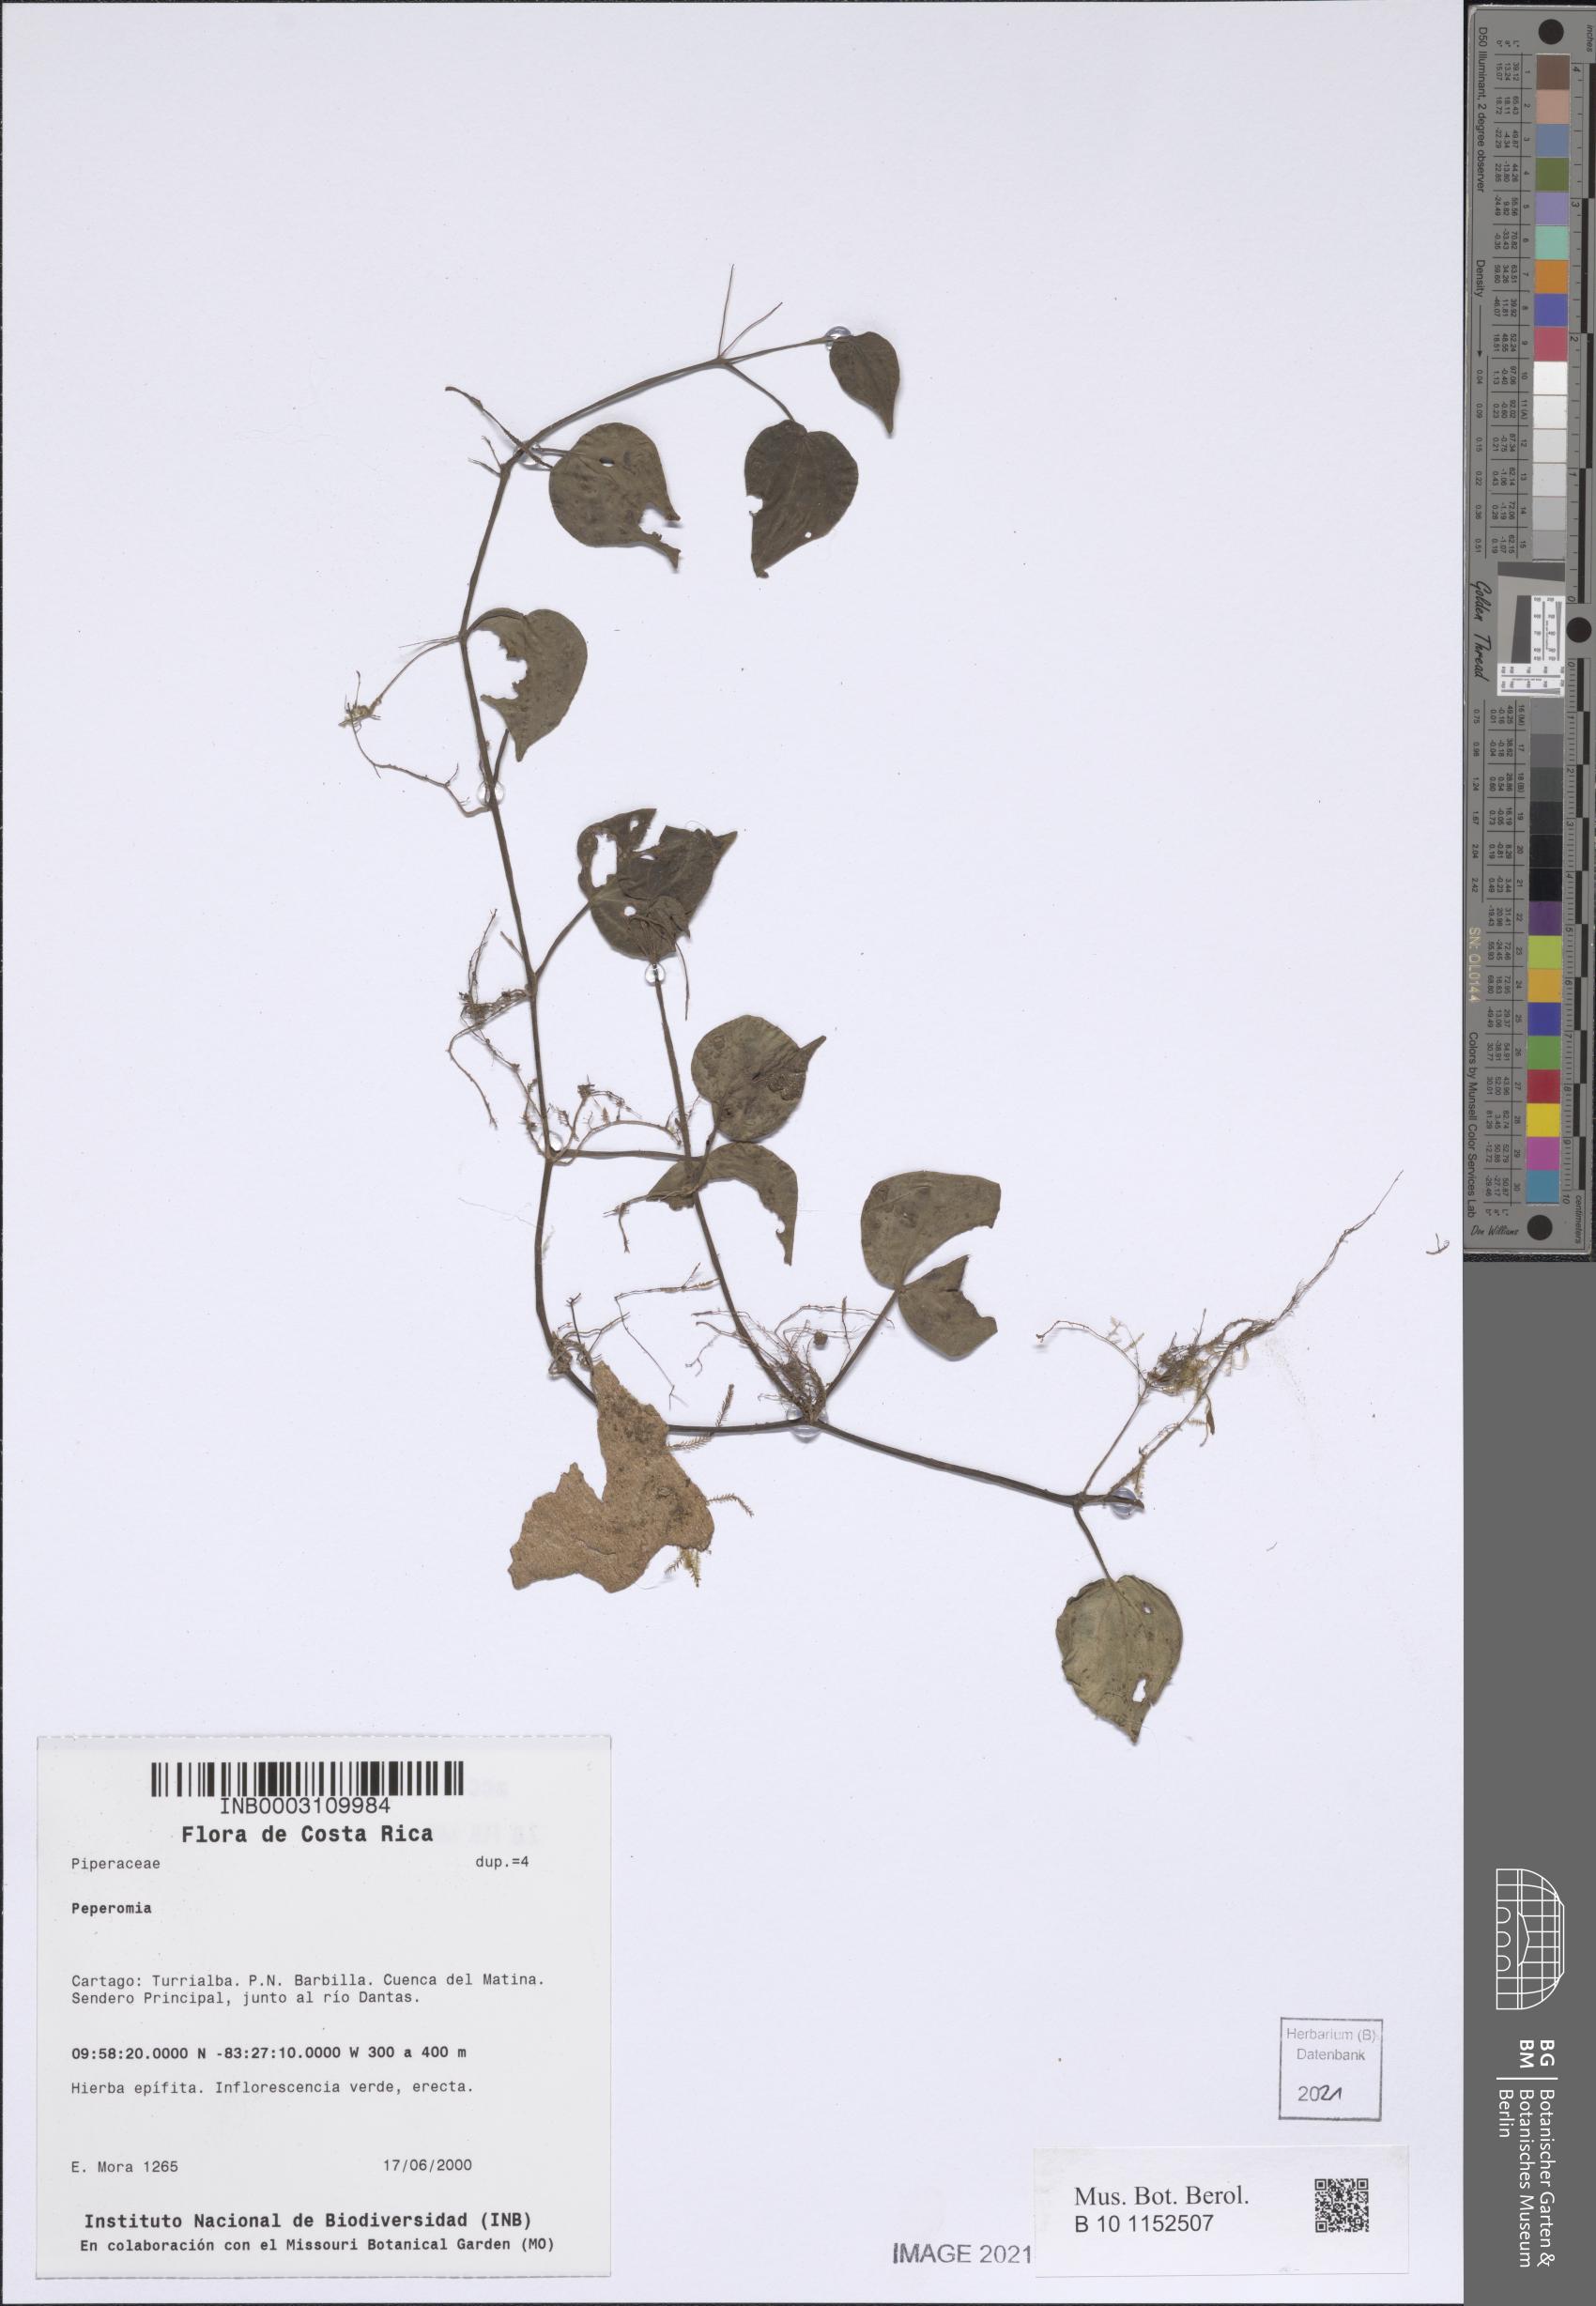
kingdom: Plantae
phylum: Tracheophyta
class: Magnoliopsida
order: Piperales
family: Piperaceae
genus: Peperomia
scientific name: Peperomia
